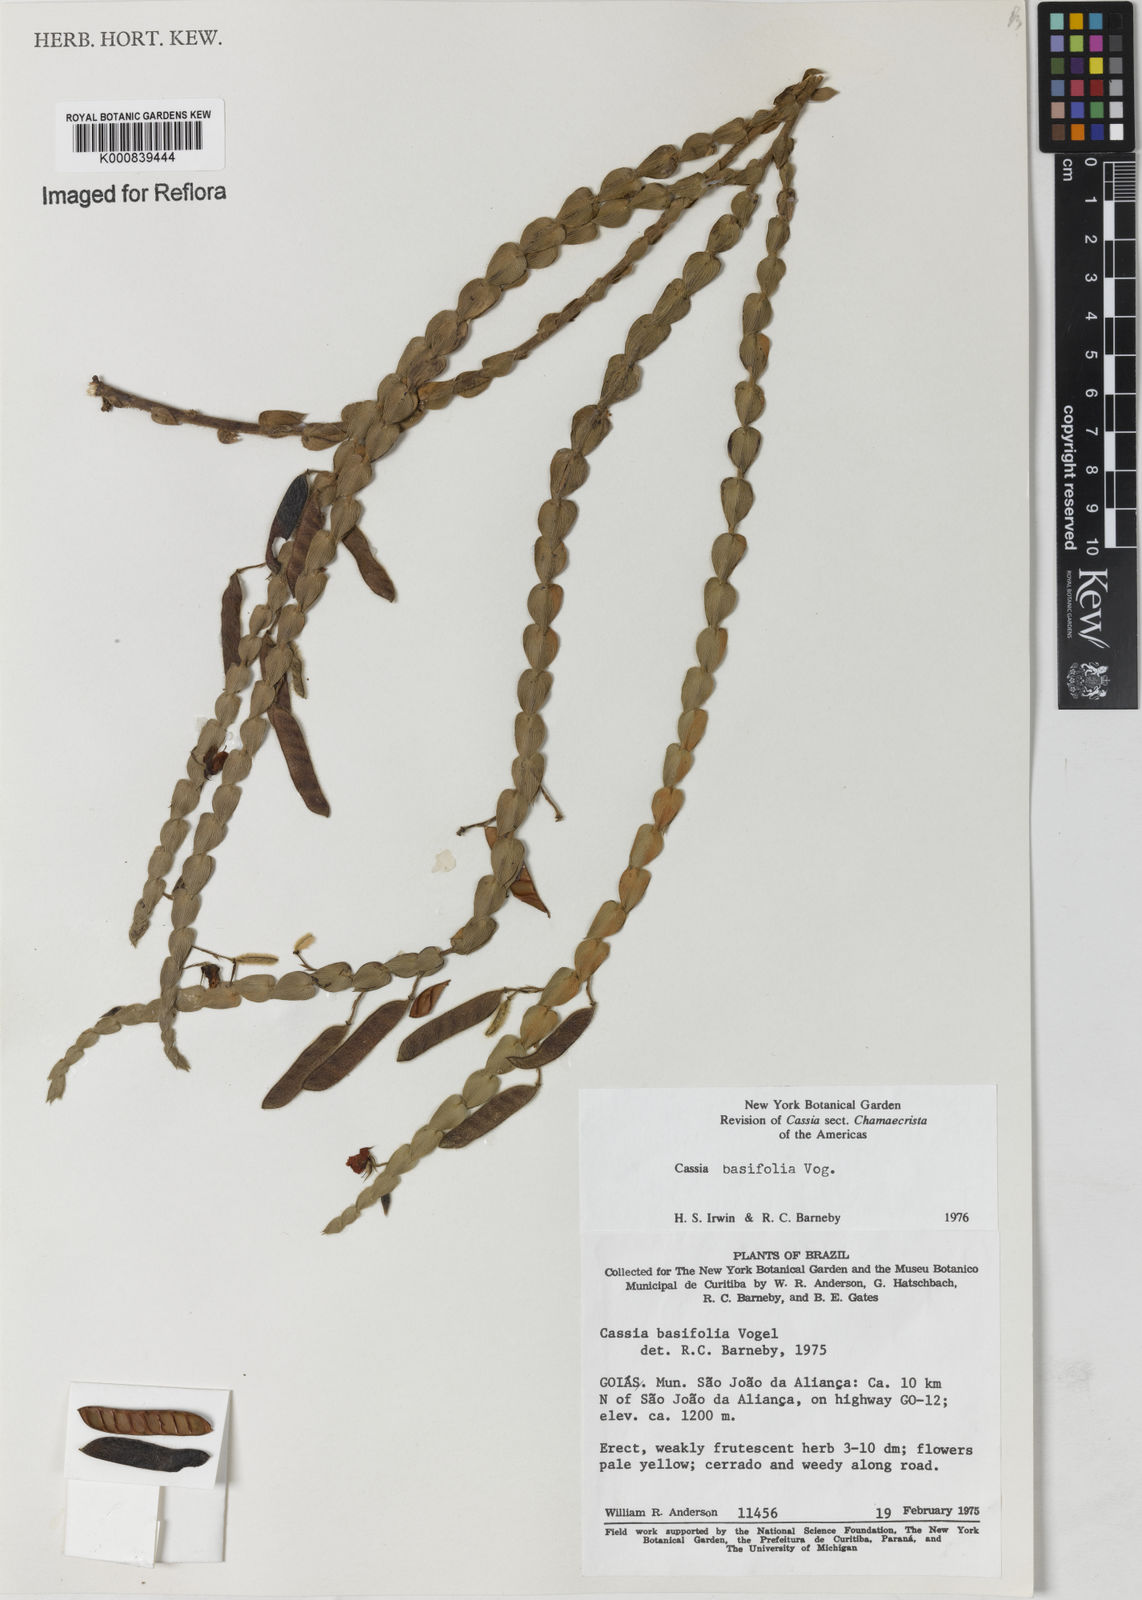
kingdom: Plantae
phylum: Tracheophyta
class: Magnoliopsida
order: Fabales
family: Fabaceae
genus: Chamaecrista
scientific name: Chamaecrista basifolia
